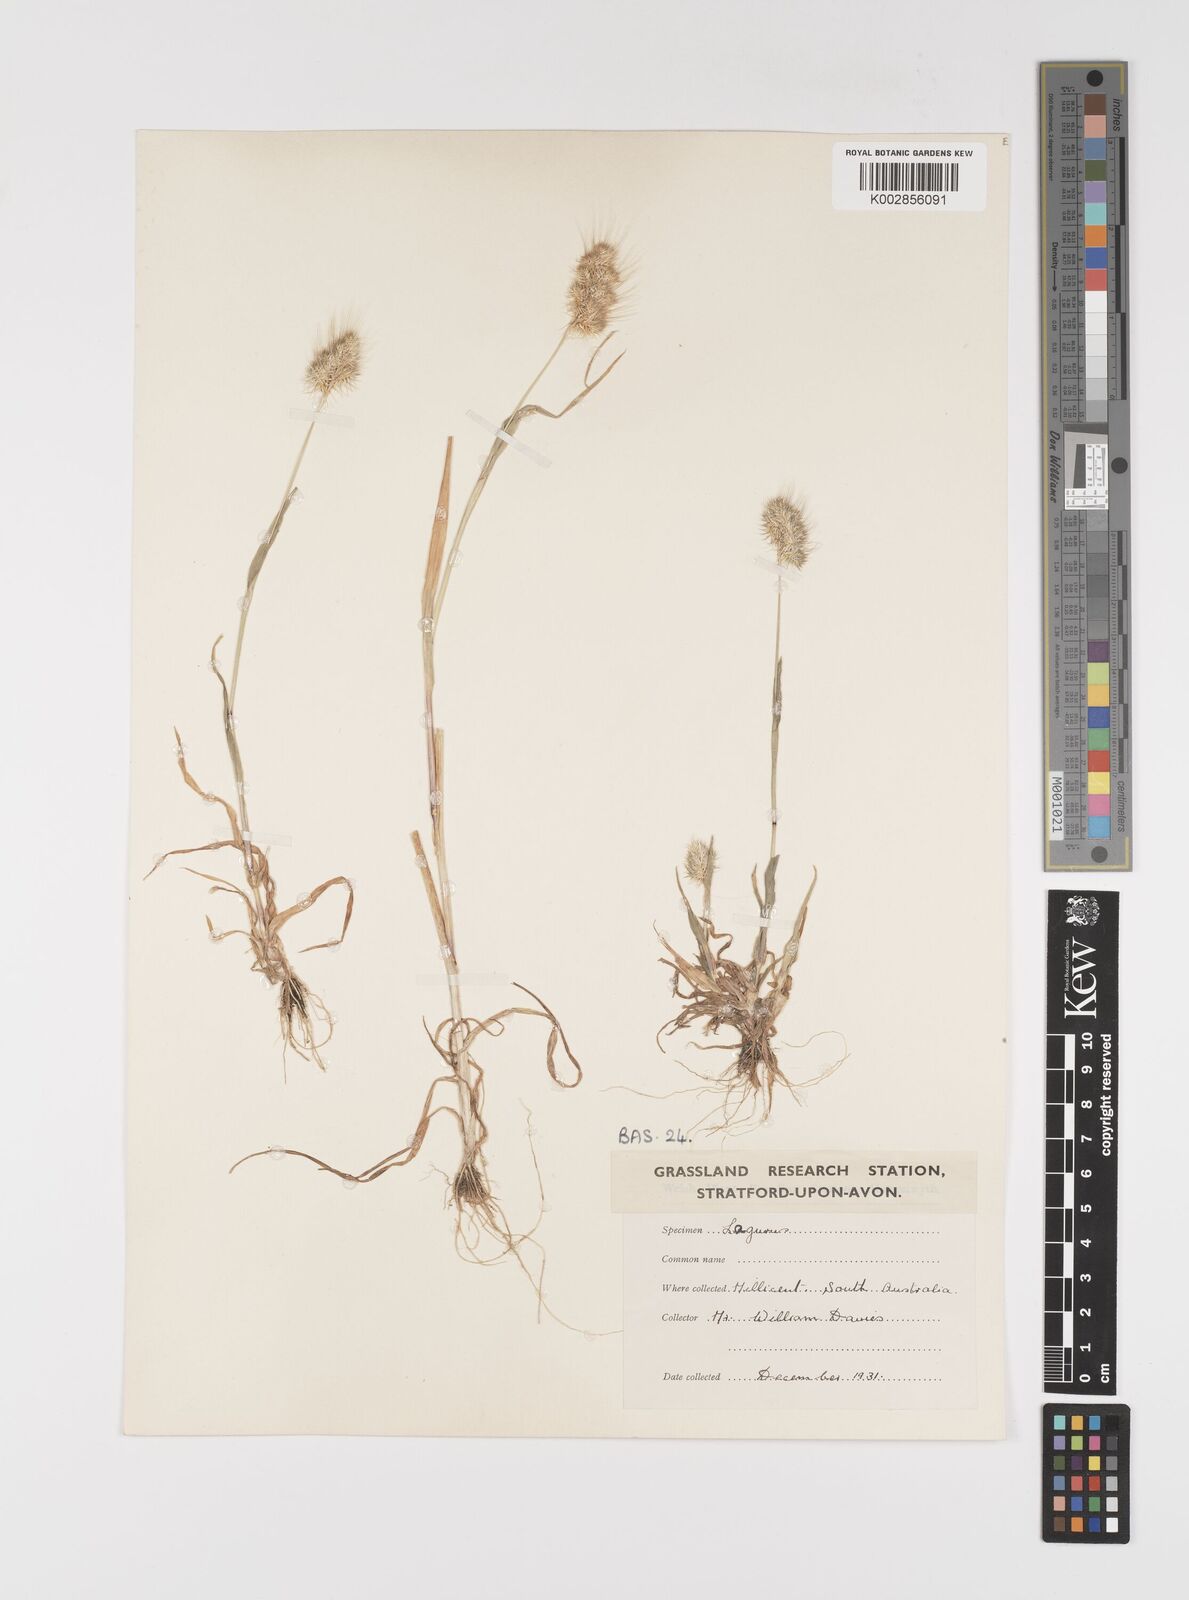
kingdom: Plantae
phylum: Tracheophyta
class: Liliopsida
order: Poales
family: Poaceae
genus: Cynosurus
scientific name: Cynosurus echinatus
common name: Rough dog's-tail
